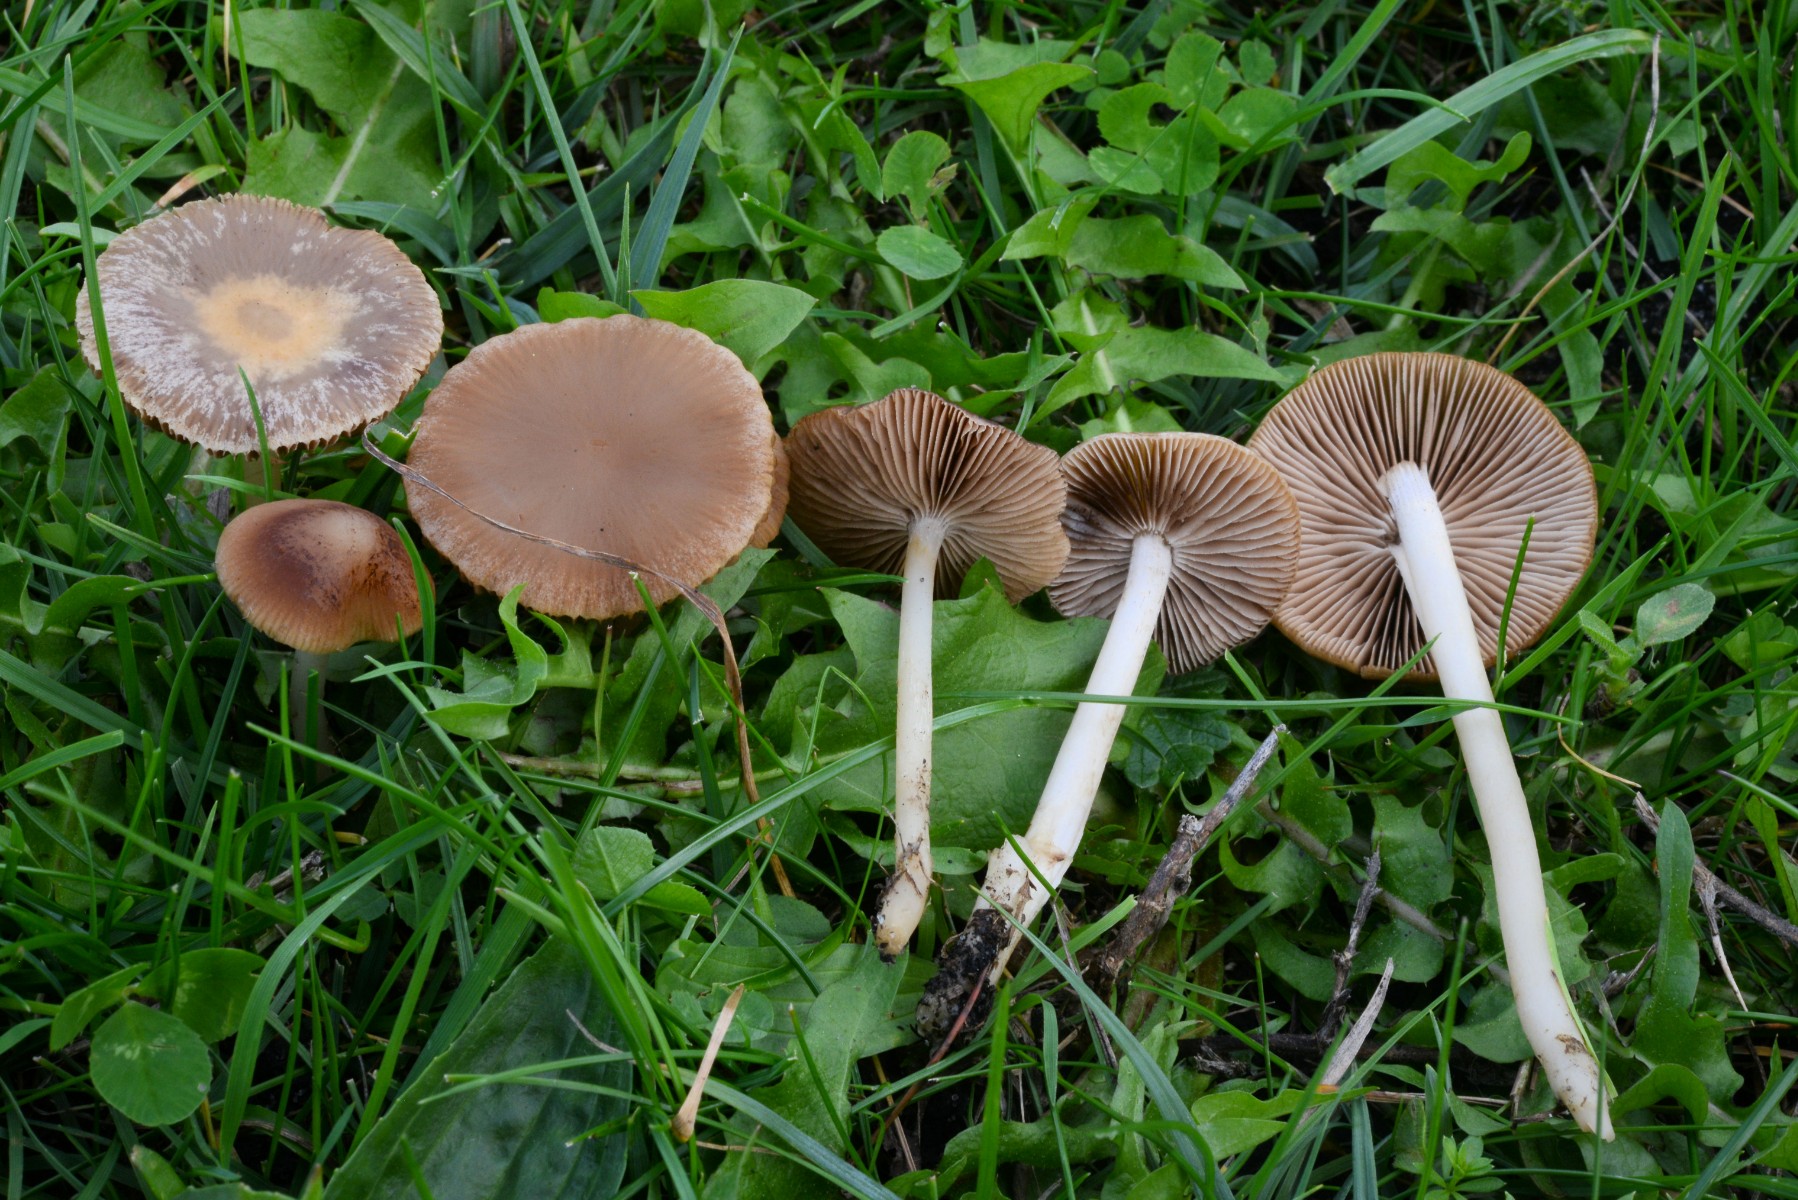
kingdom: Fungi
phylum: Basidiomycota
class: Agaricomycetes
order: Agaricales
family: Psathyrellaceae
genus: Psathyrella
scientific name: Psathyrella clivensis
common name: eng-mørkhat
